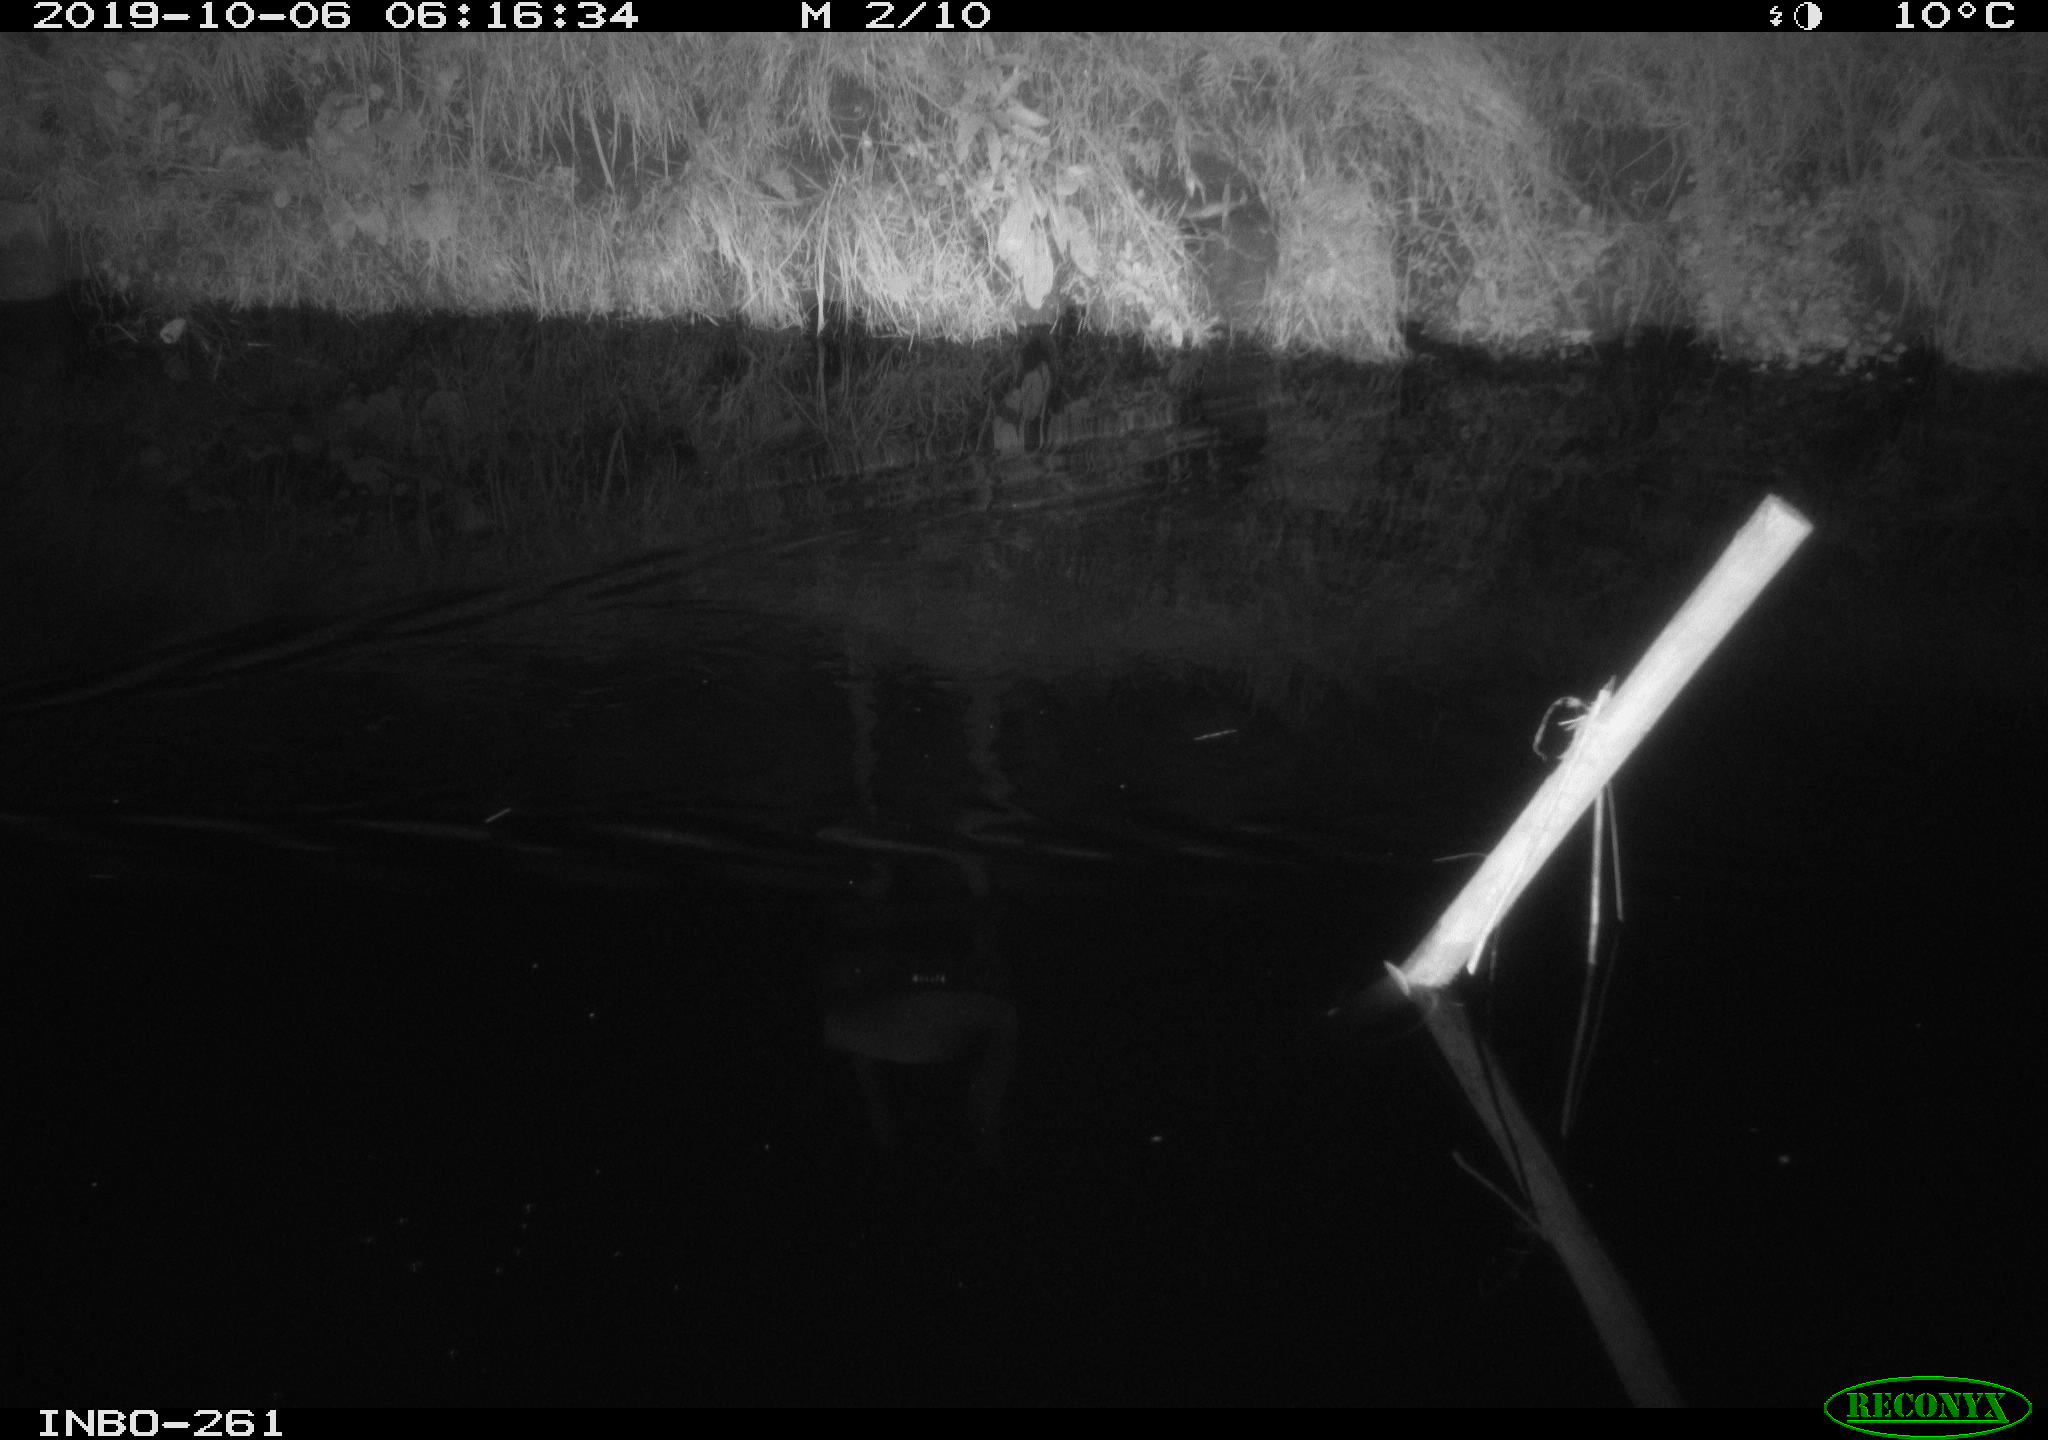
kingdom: Animalia
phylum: Chordata
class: Aves
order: Anseriformes
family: Anatidae
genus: Anas
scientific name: Anas platyrhynchos
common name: Mallard
